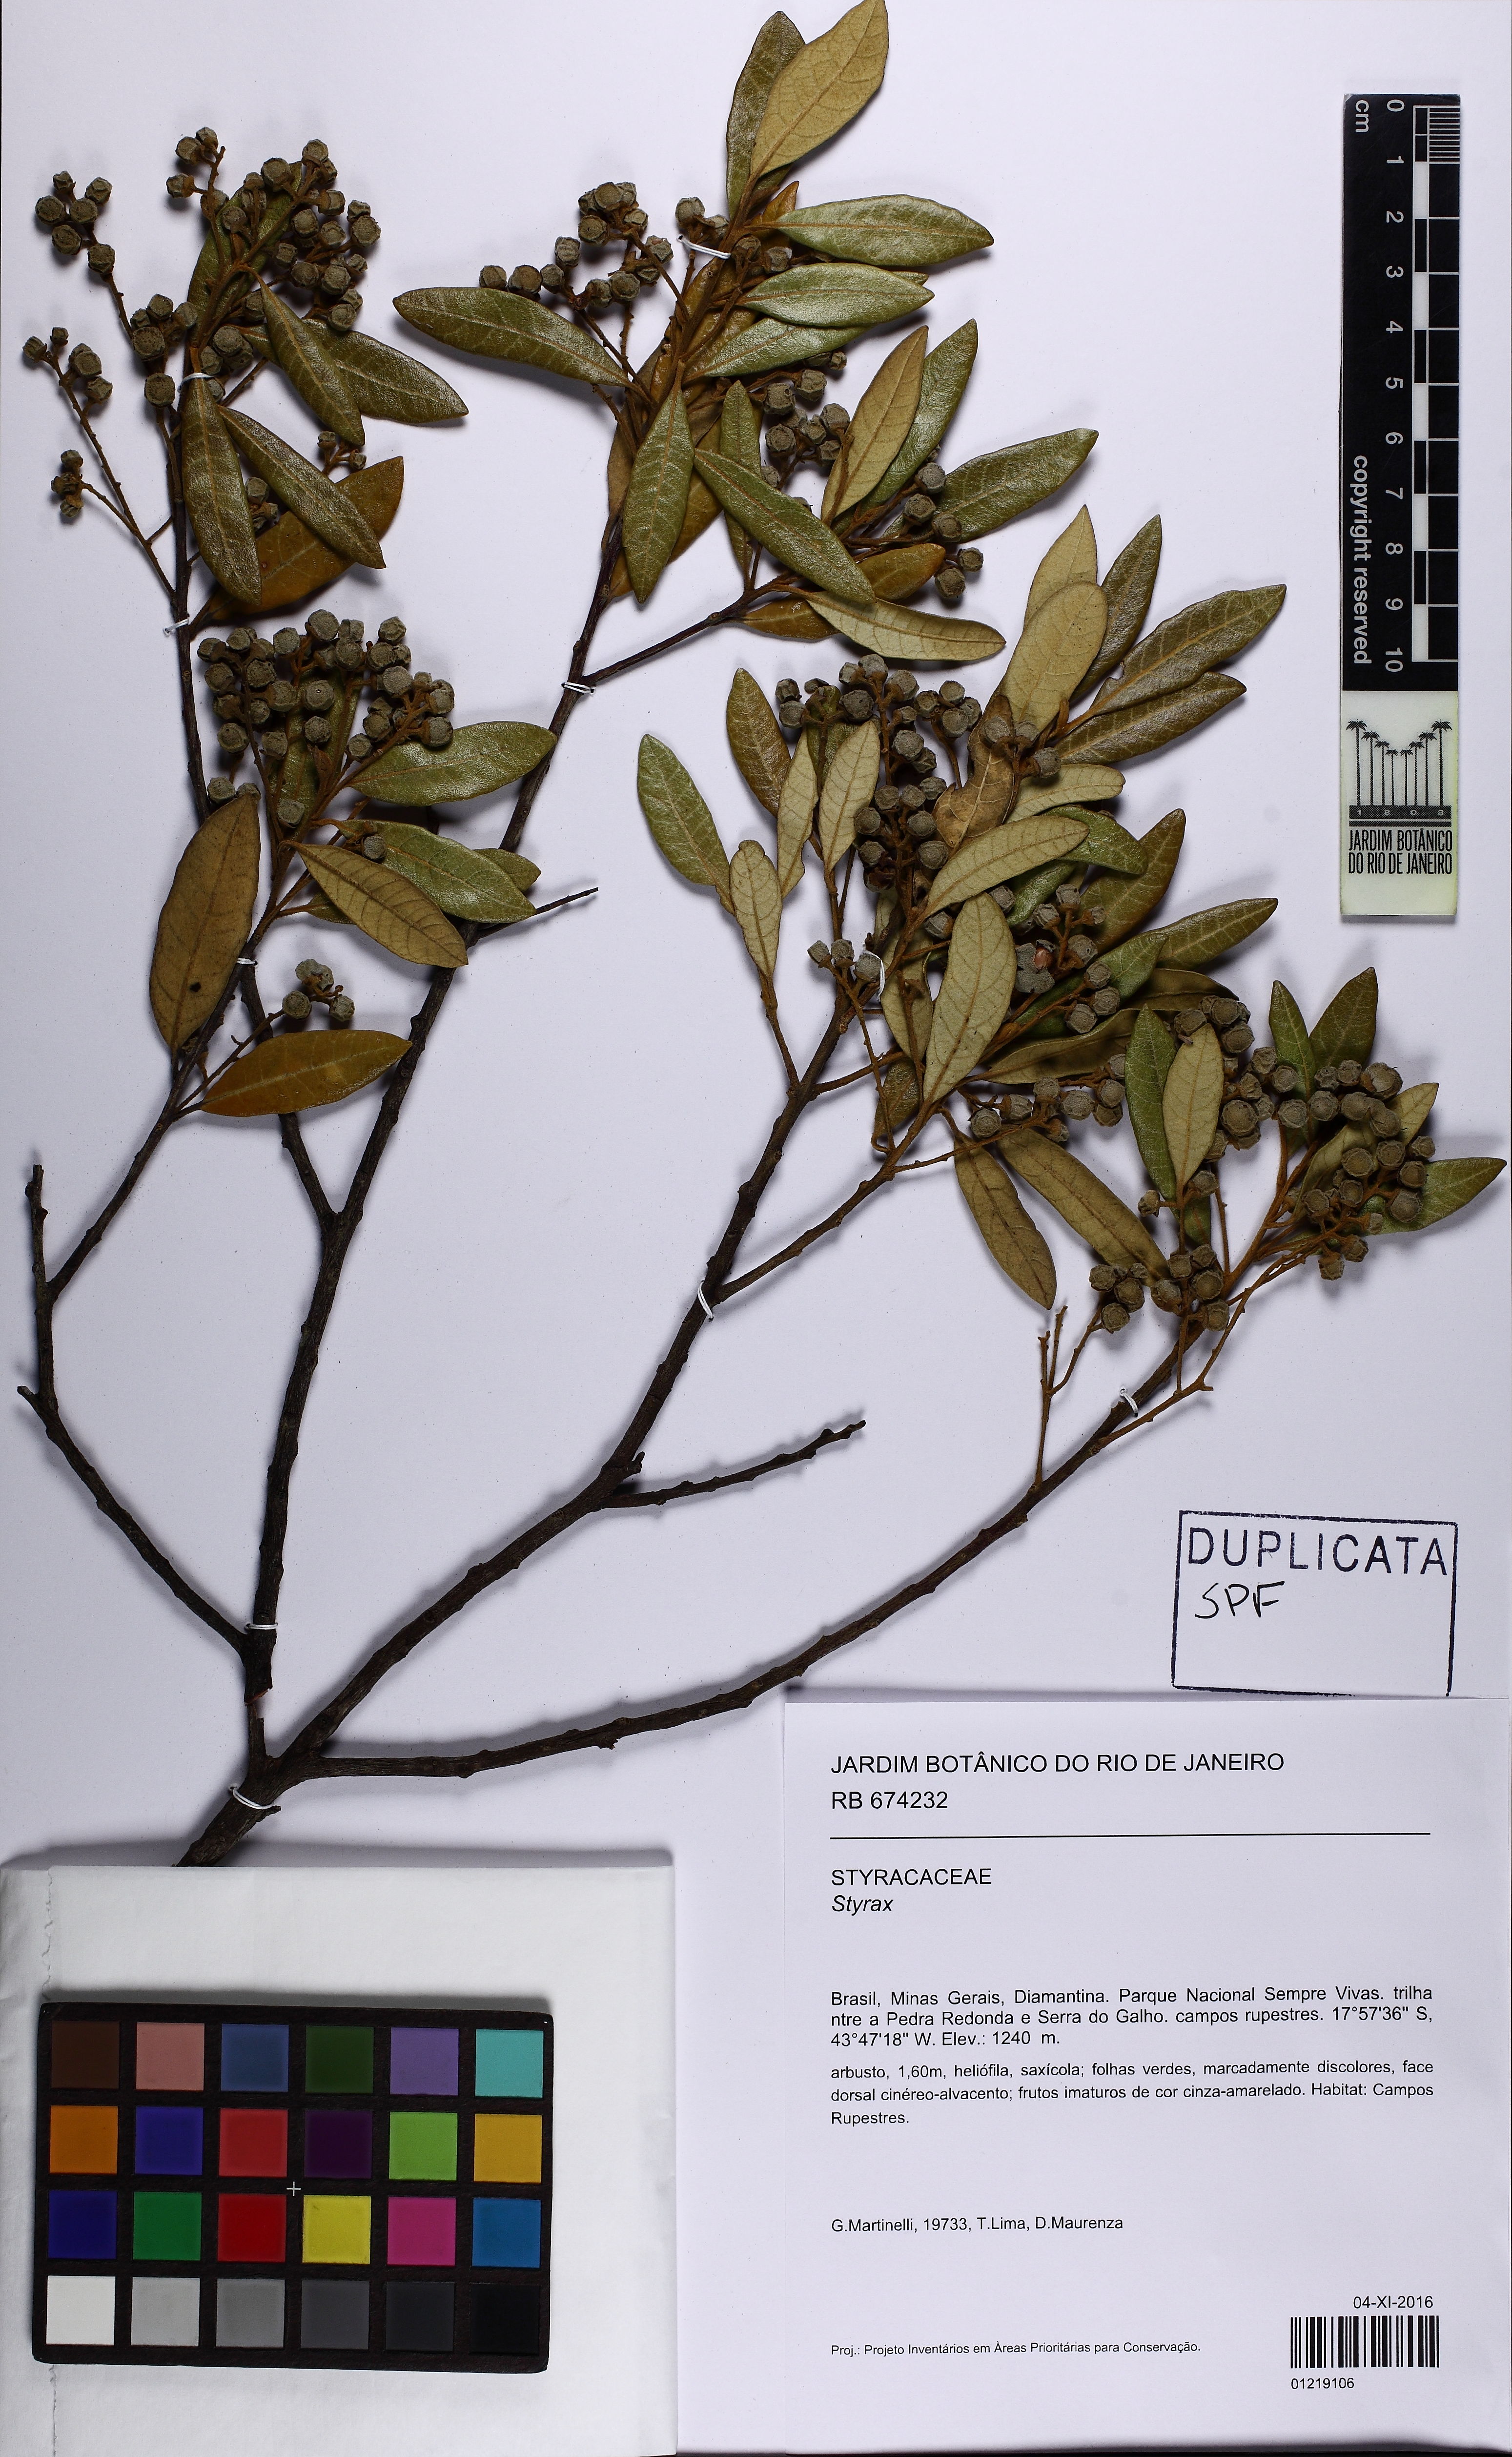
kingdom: Plantae
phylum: Tracheophyta
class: Magnoliopsida
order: Ericales
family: Styracaceae
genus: Styrax
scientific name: Styrax
